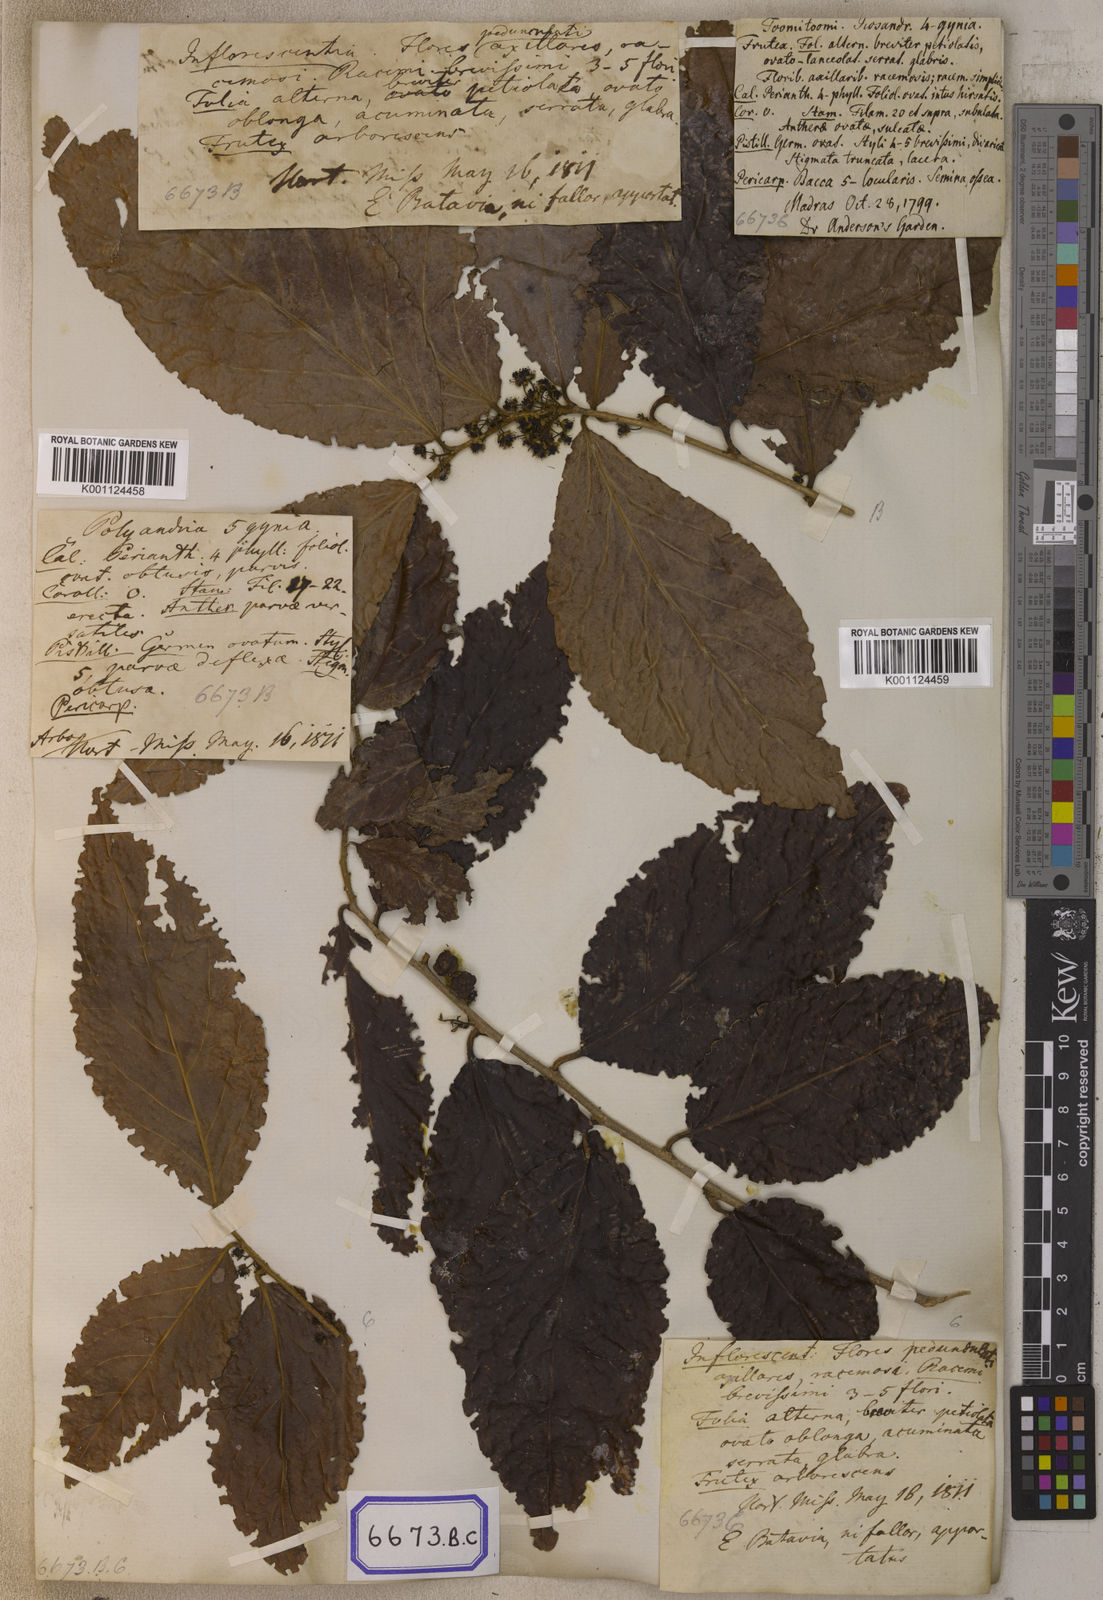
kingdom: Plantae
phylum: Tracheophyta
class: Magnoliopsida
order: Malpighiales
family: Salicaceae
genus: Flacourtia
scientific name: Flacourtia
